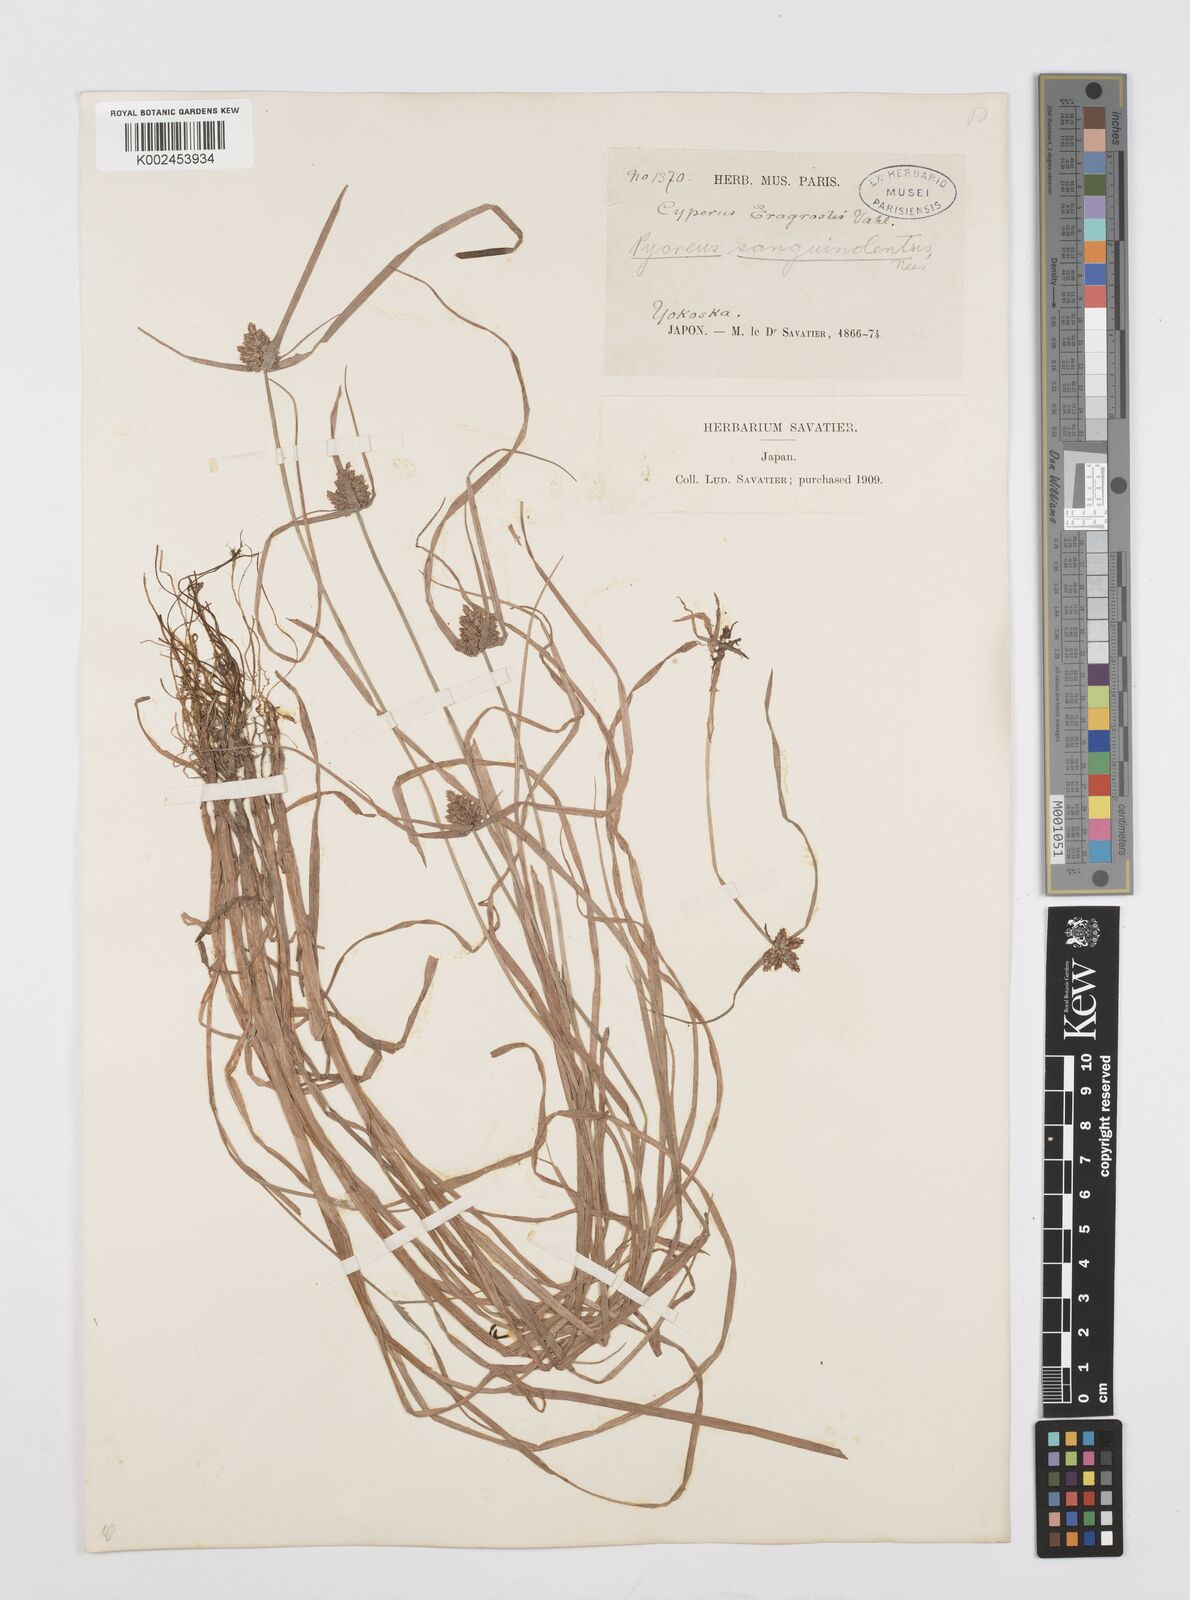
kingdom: Plantae
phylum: Tracheophyta
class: Liliopsida
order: Poales
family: Cyperaceae
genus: Cyperus
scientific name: Cyperus sanguinolentus
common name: Purpleglume flatsedge
